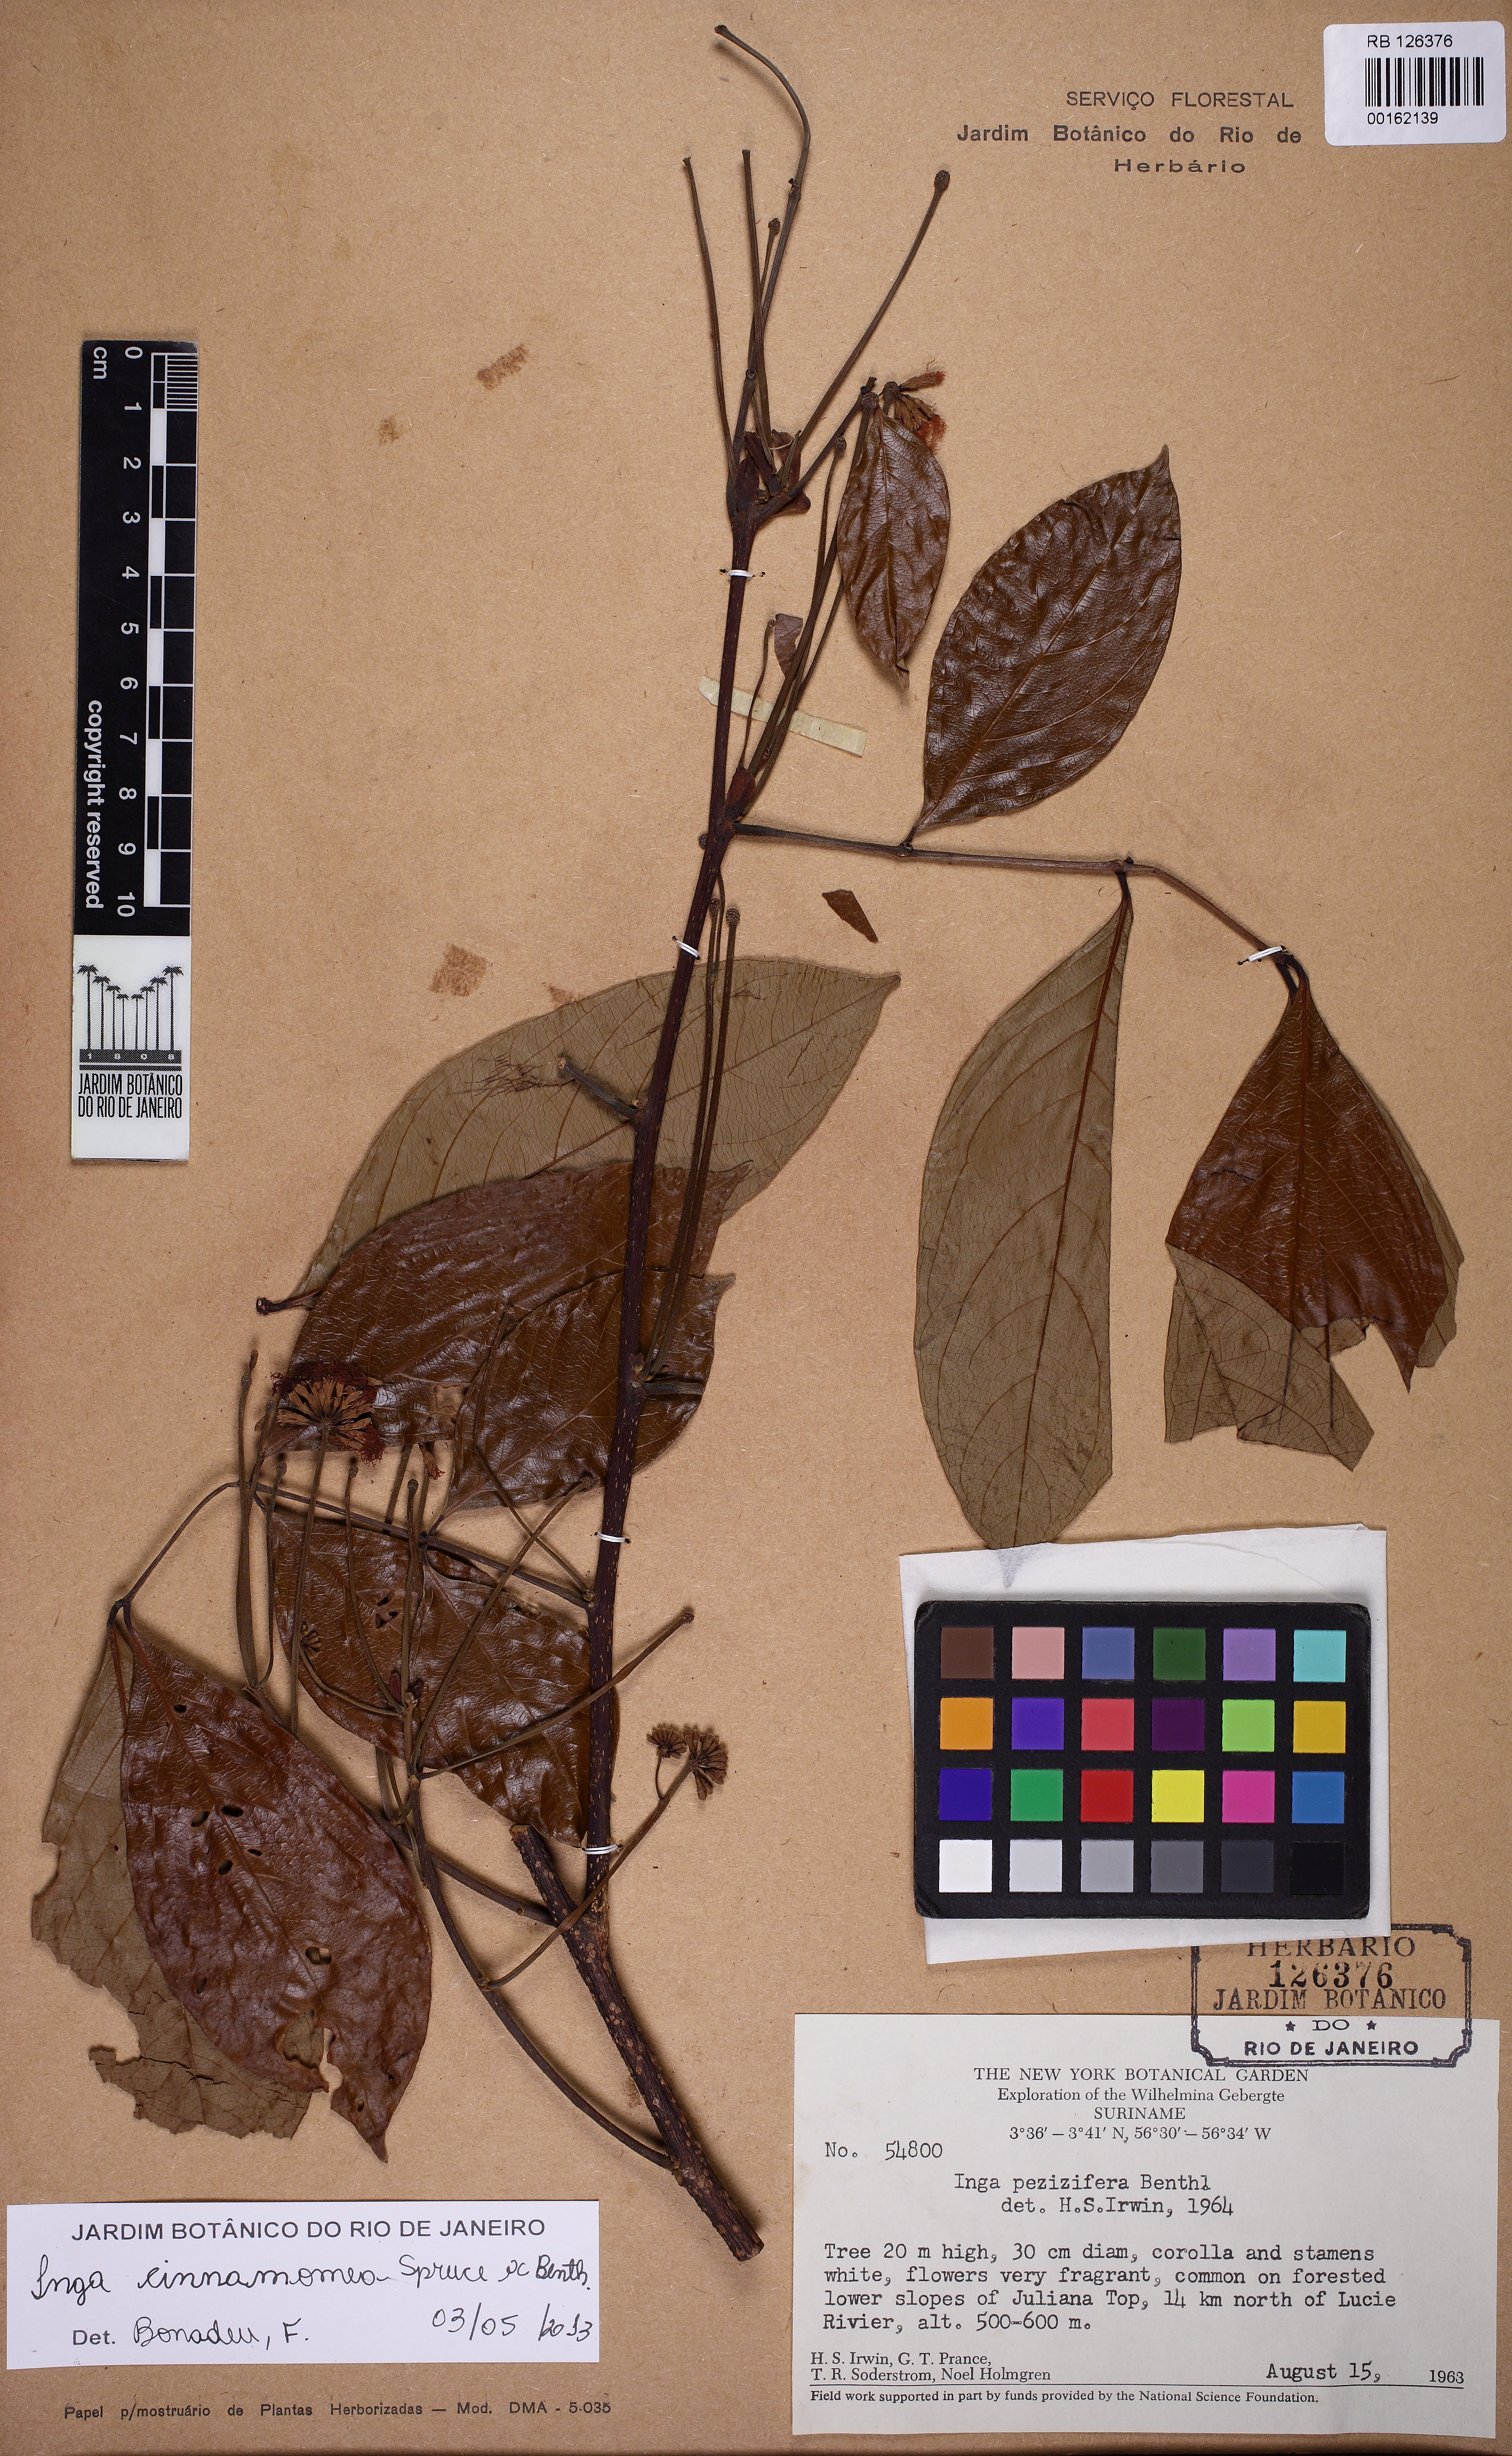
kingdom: Plantae
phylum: Tracheophyta
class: Magnoliopsida
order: Fabales
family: Fabaceae
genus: Inga
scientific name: Inga cinnamomea
